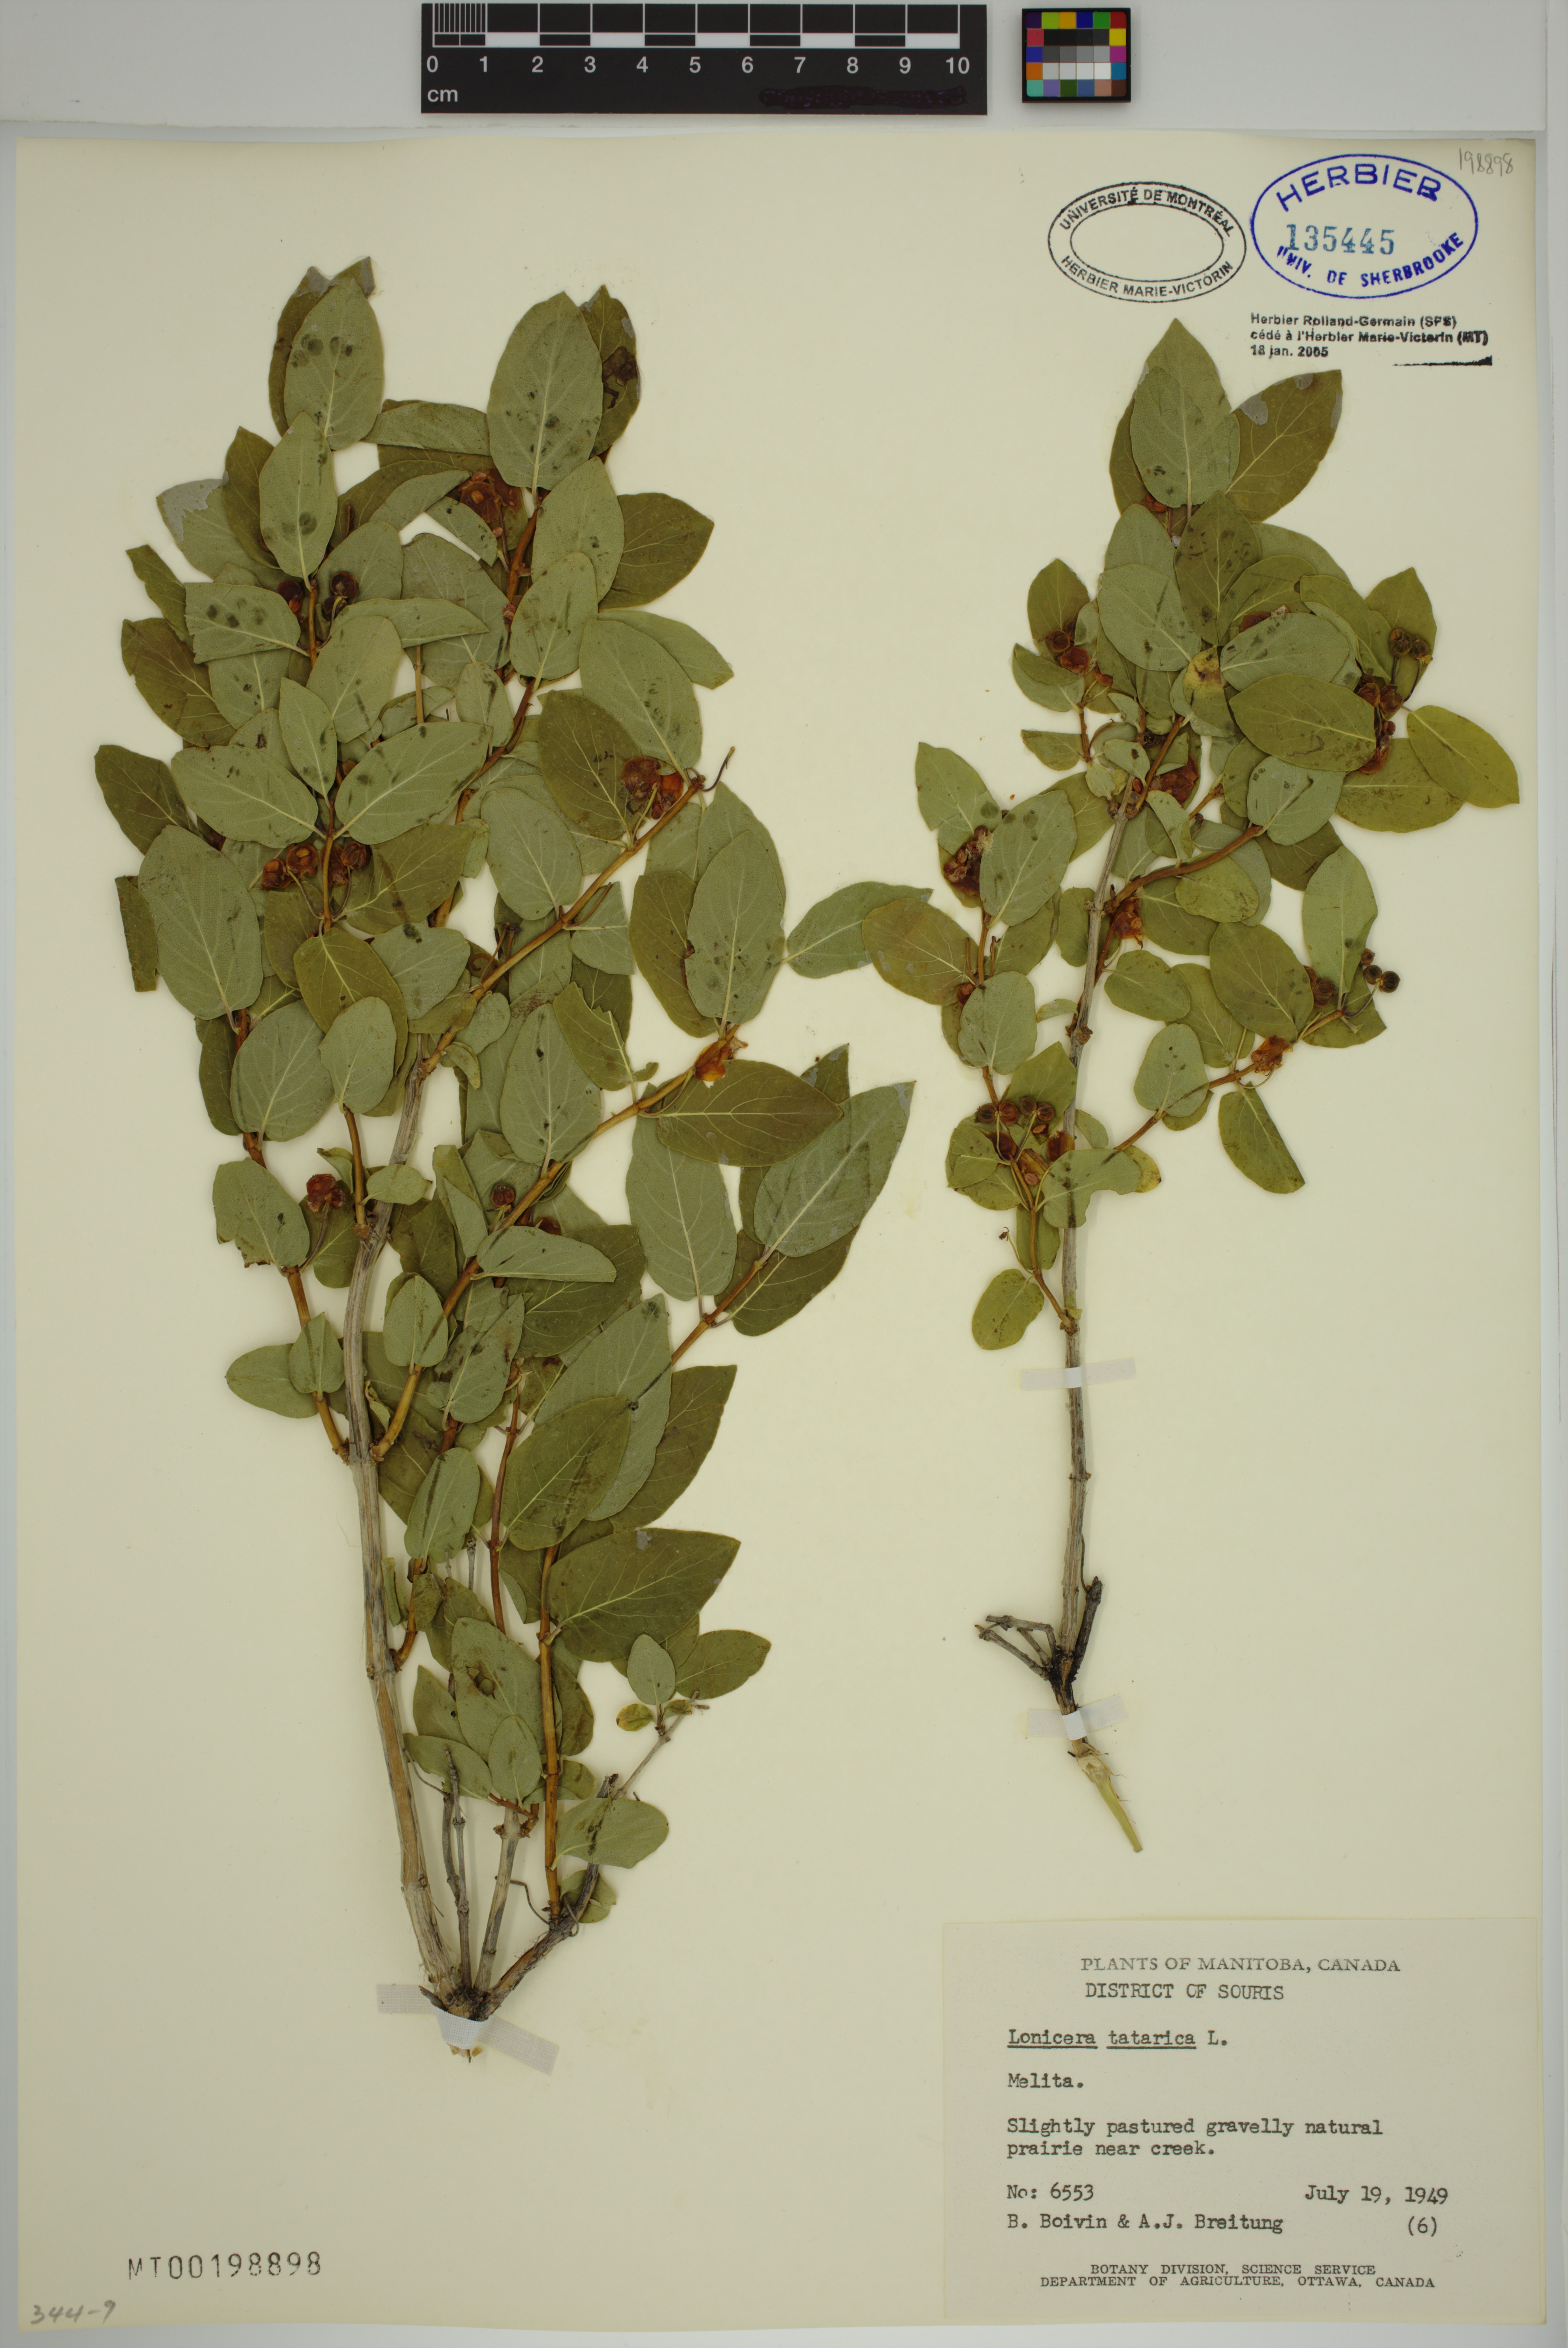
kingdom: Plantae
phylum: Tracheophyta
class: Magnoliopsida
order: Dipsacales
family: Caprifoliaceae
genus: Lonicera
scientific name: Lonicera tatarica
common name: Tatarian honeysuckle
